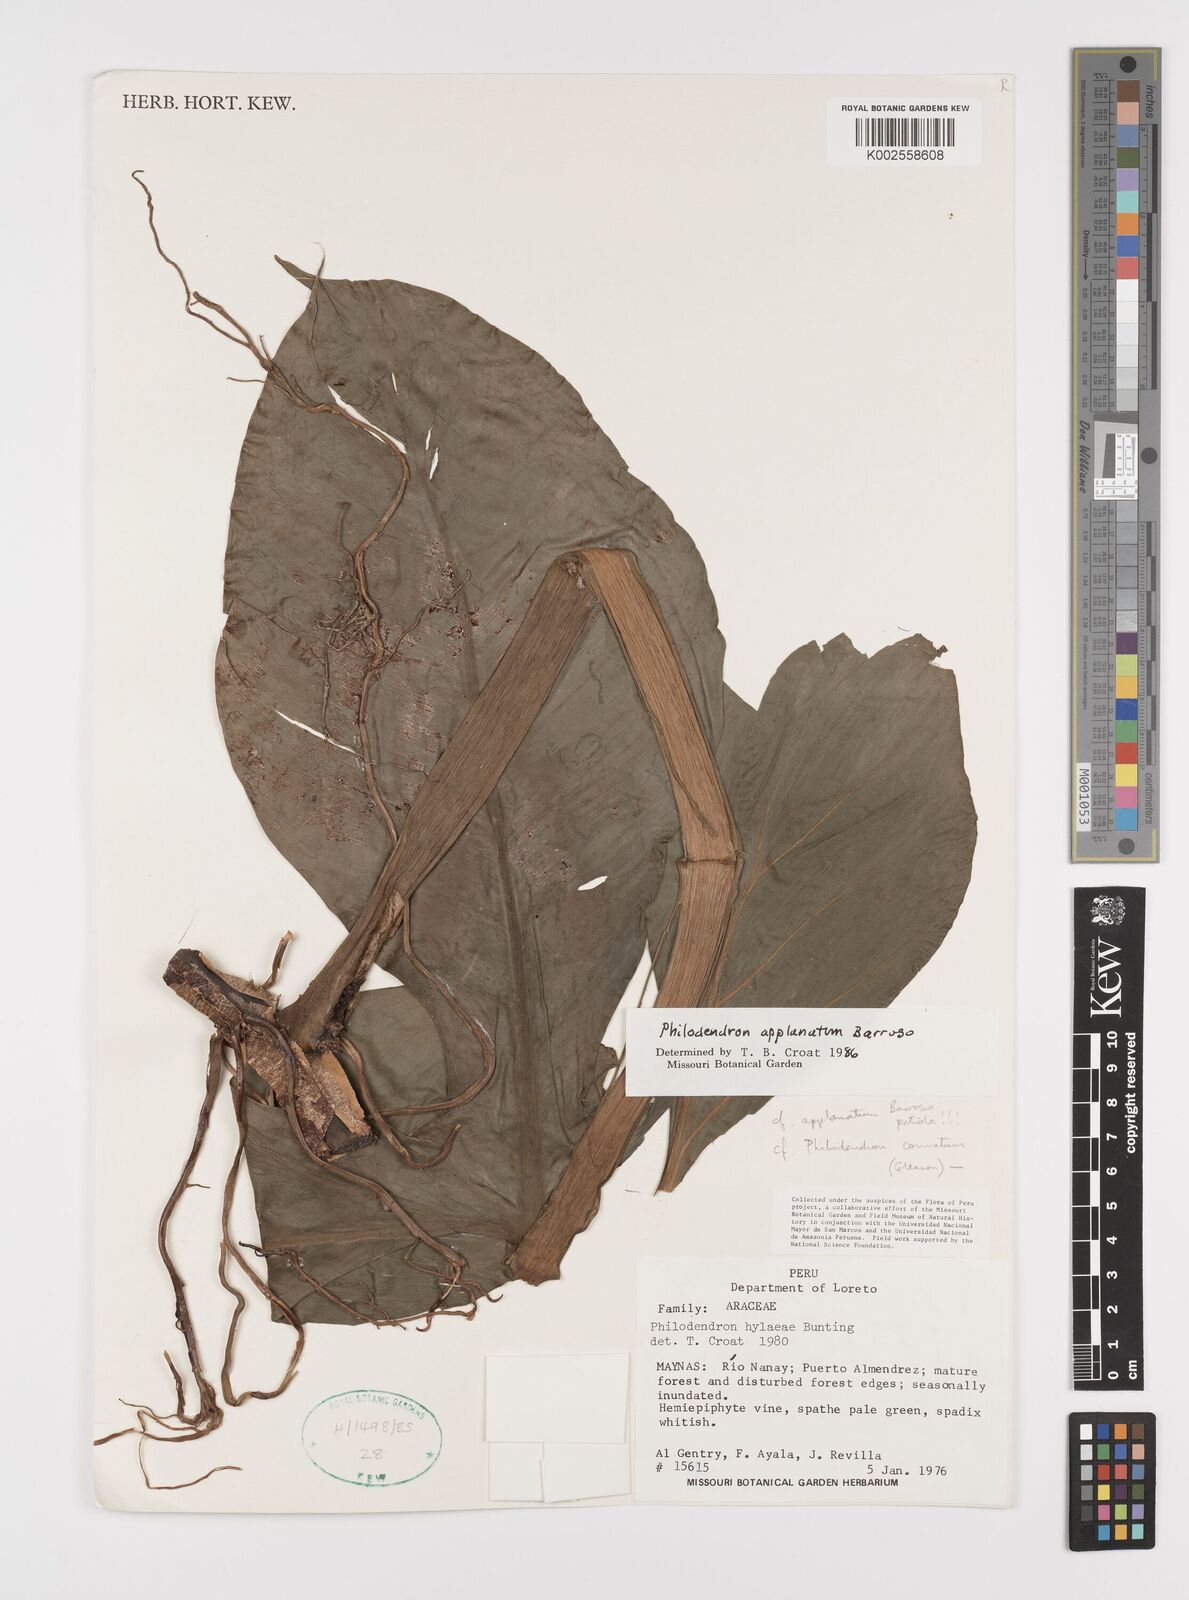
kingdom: Plantae
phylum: Tracheophyta
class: Liliopsida
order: Alismatales
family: Araceae
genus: Philodendron
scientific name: Philodendron applanatum
